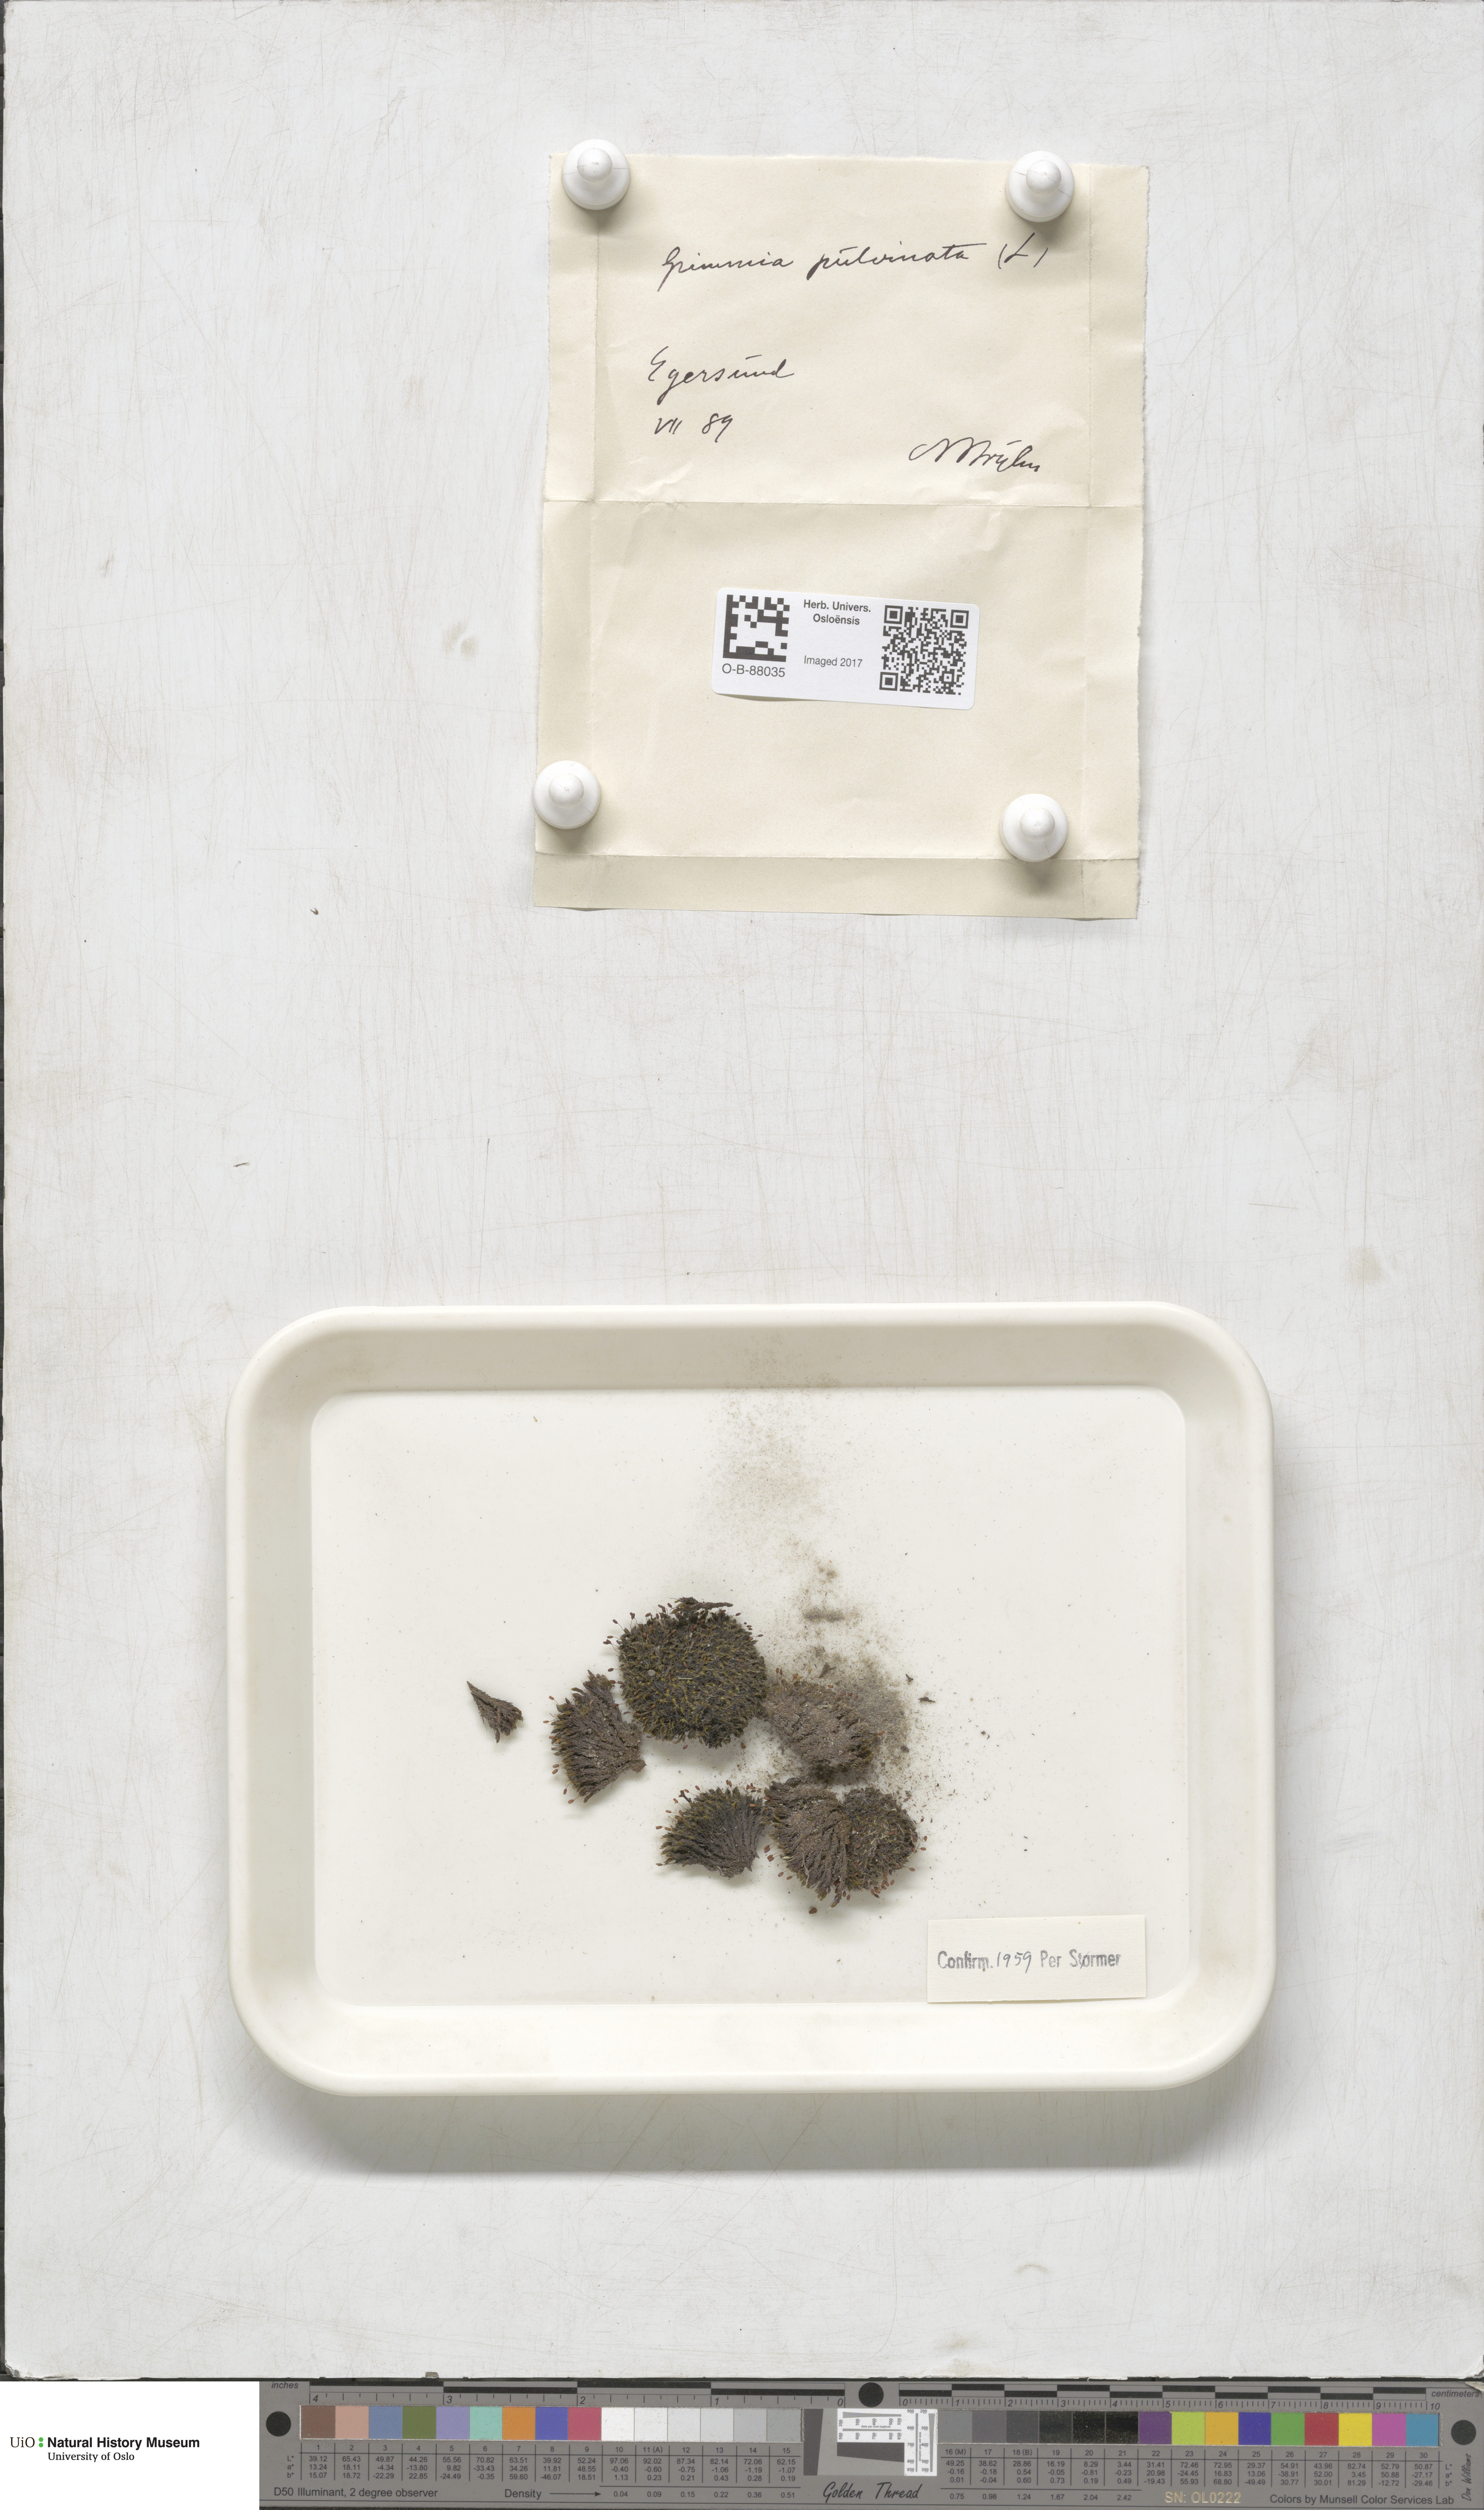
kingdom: Plantae
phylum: Bryophyta
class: Bryopsida
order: Grimmiales
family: Grimmiaceae
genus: Grimmia
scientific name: Grimmia pulvinata
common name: Grey-cushioned grimmia
